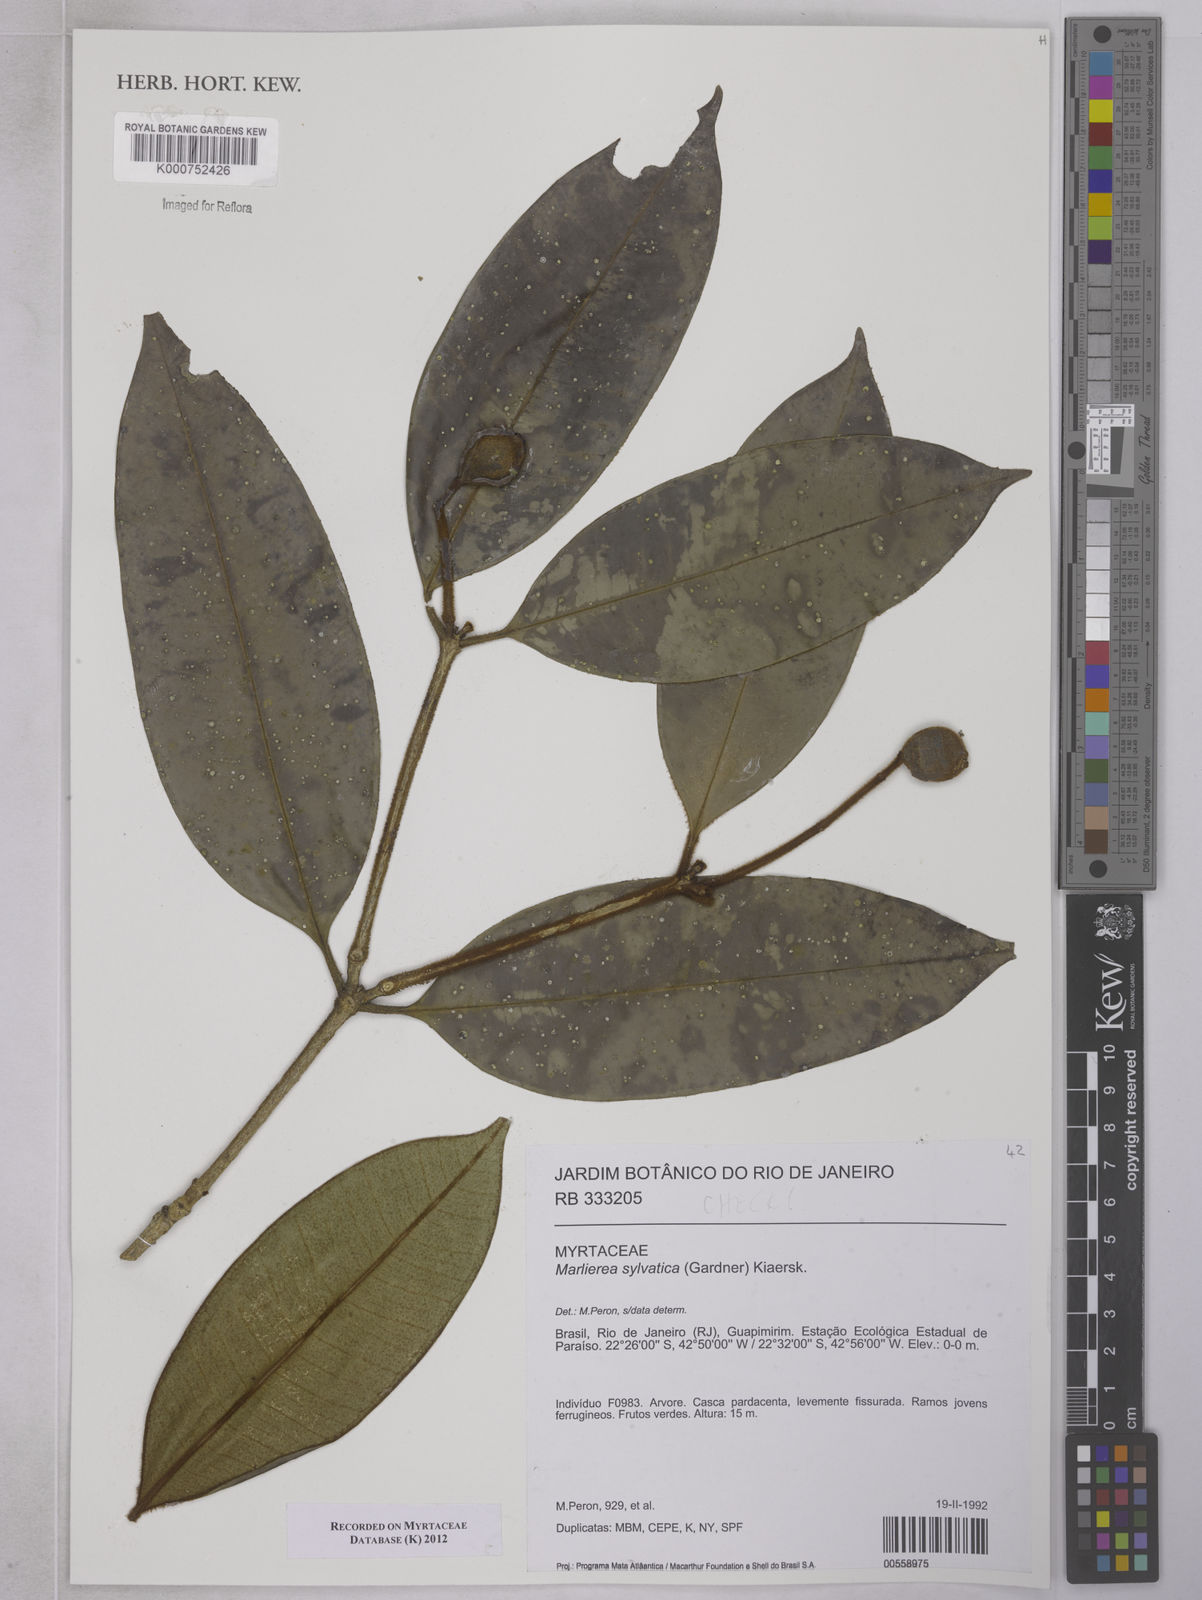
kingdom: Plantae
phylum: Tracheophyta
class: Magnoliopsida
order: Myrtales
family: Myrtaceae
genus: Myrcia
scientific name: Myrcia ferruginosa
